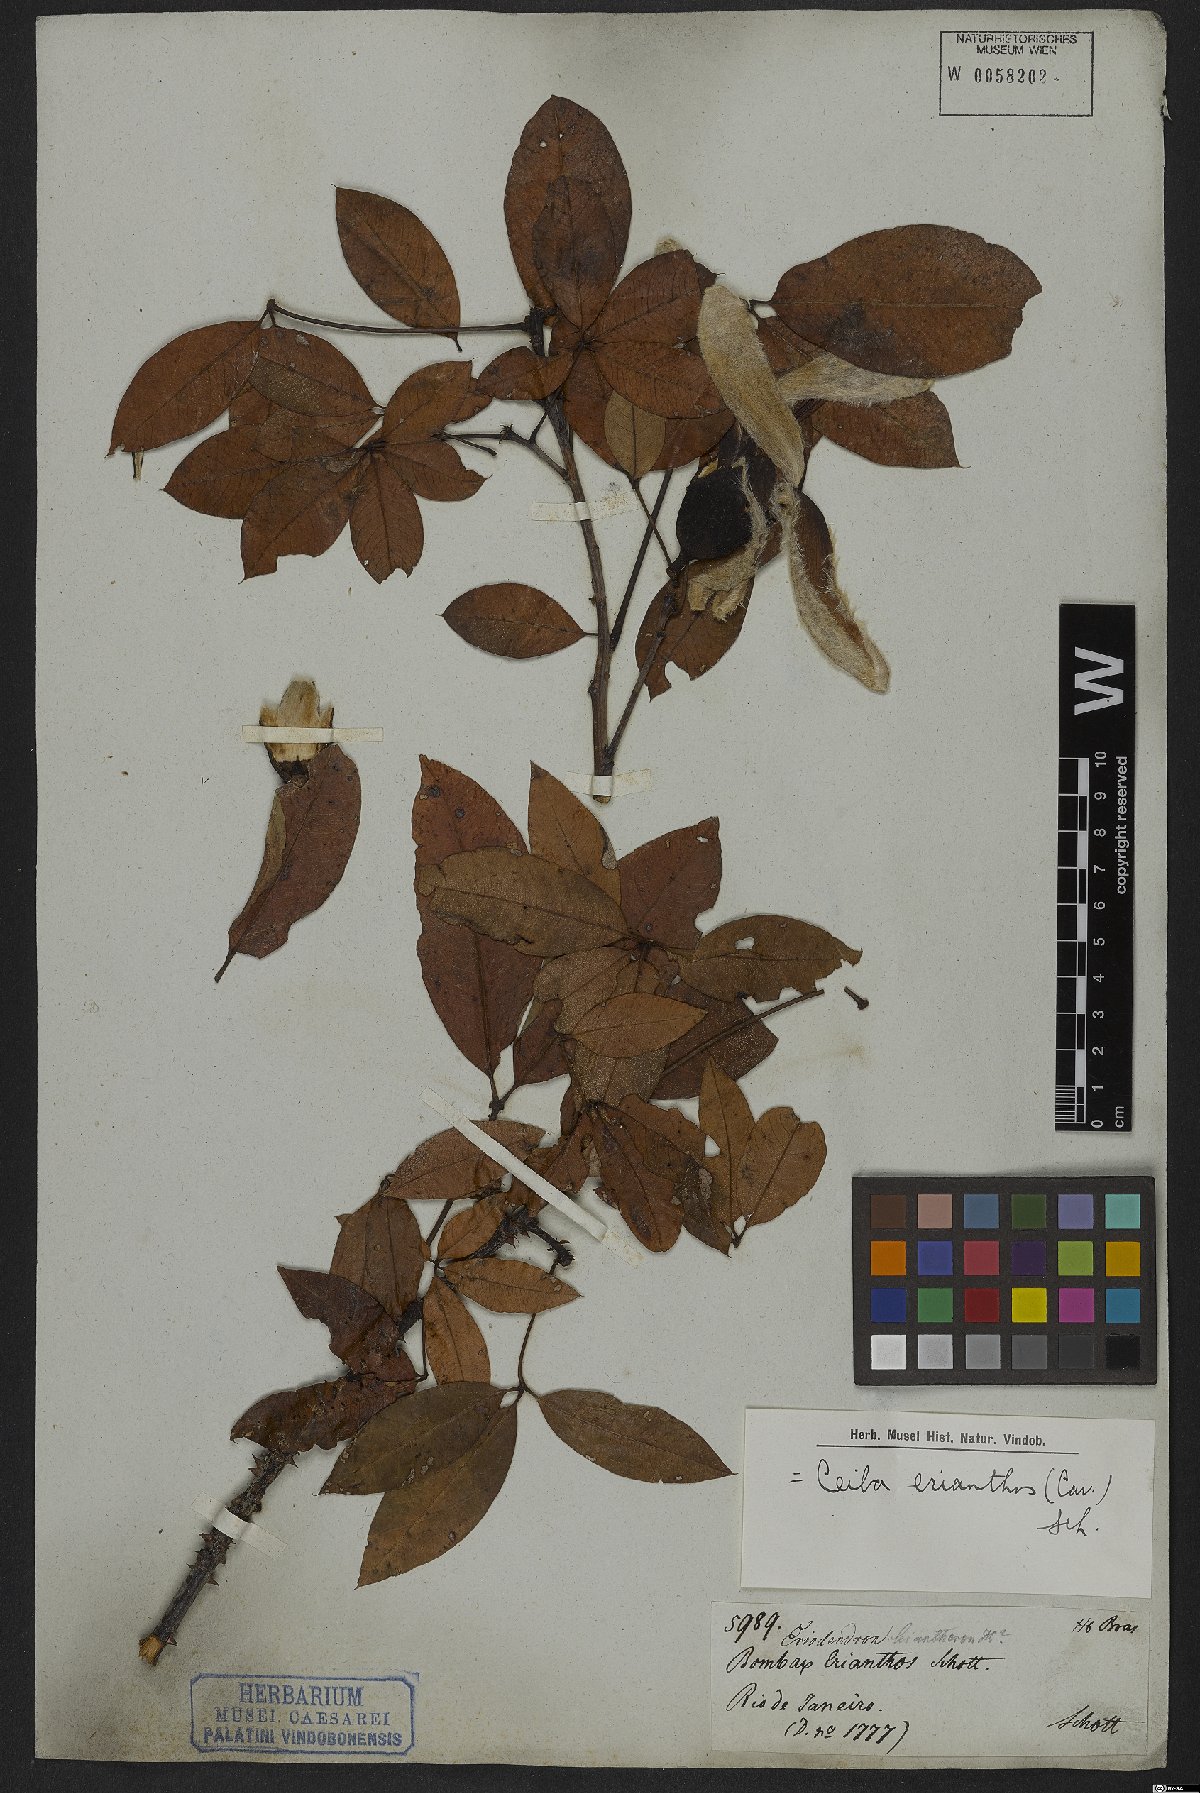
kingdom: Plantae
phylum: Tracheophyta
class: Magnoliopsida
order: Malvales
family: Malvaceae
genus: Ceiba
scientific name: Ceiba erianthos
